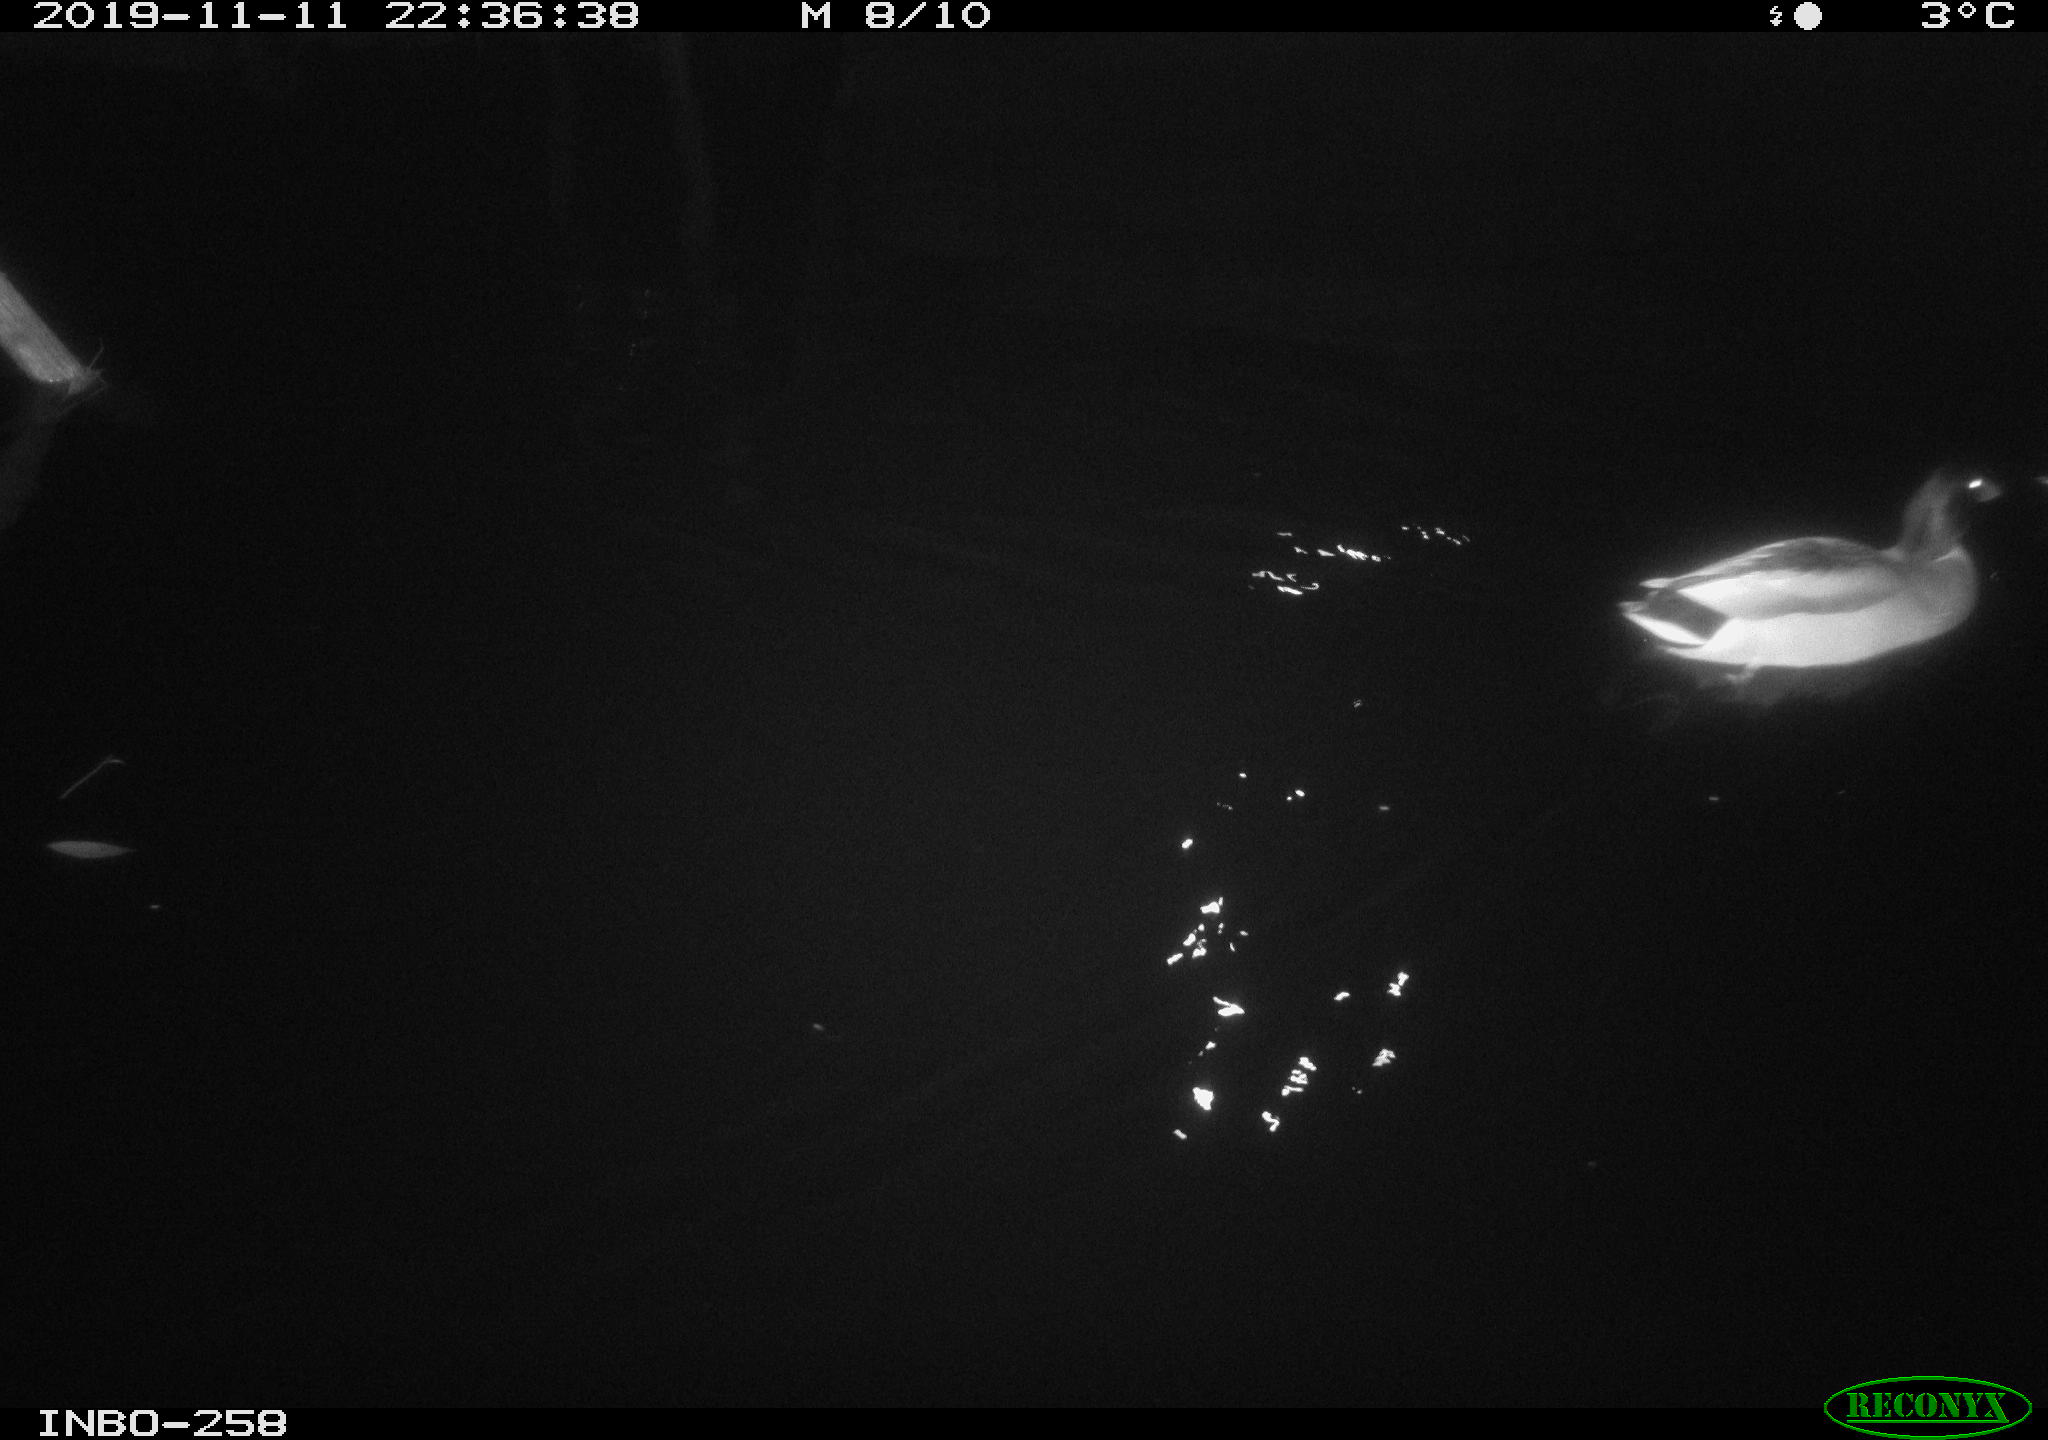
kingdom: Animalia
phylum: Chordata
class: Aves
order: Anseriformes
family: Anatidae
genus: Anas
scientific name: Anas platyrhynchos
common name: Mallard
